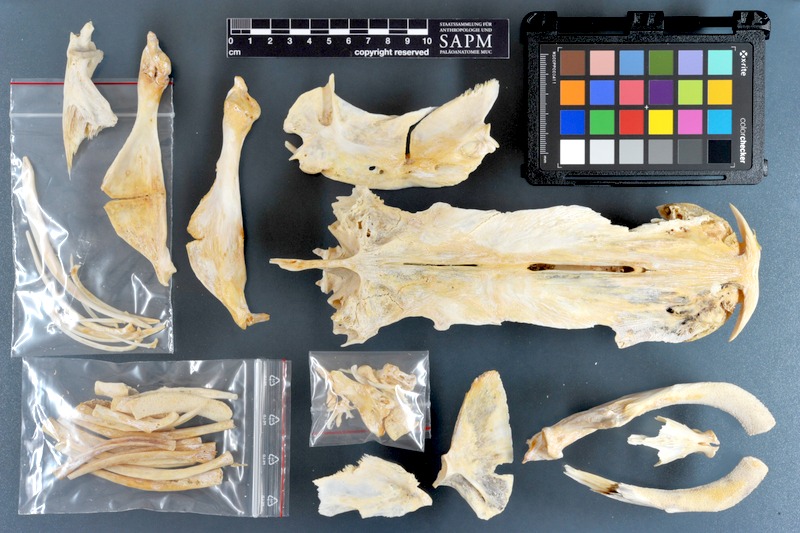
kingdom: Animalia
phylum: Chordata
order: Siluriformes
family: Bagridae
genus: Bagrus
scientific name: Bagrus meridionalis
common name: Kampango
